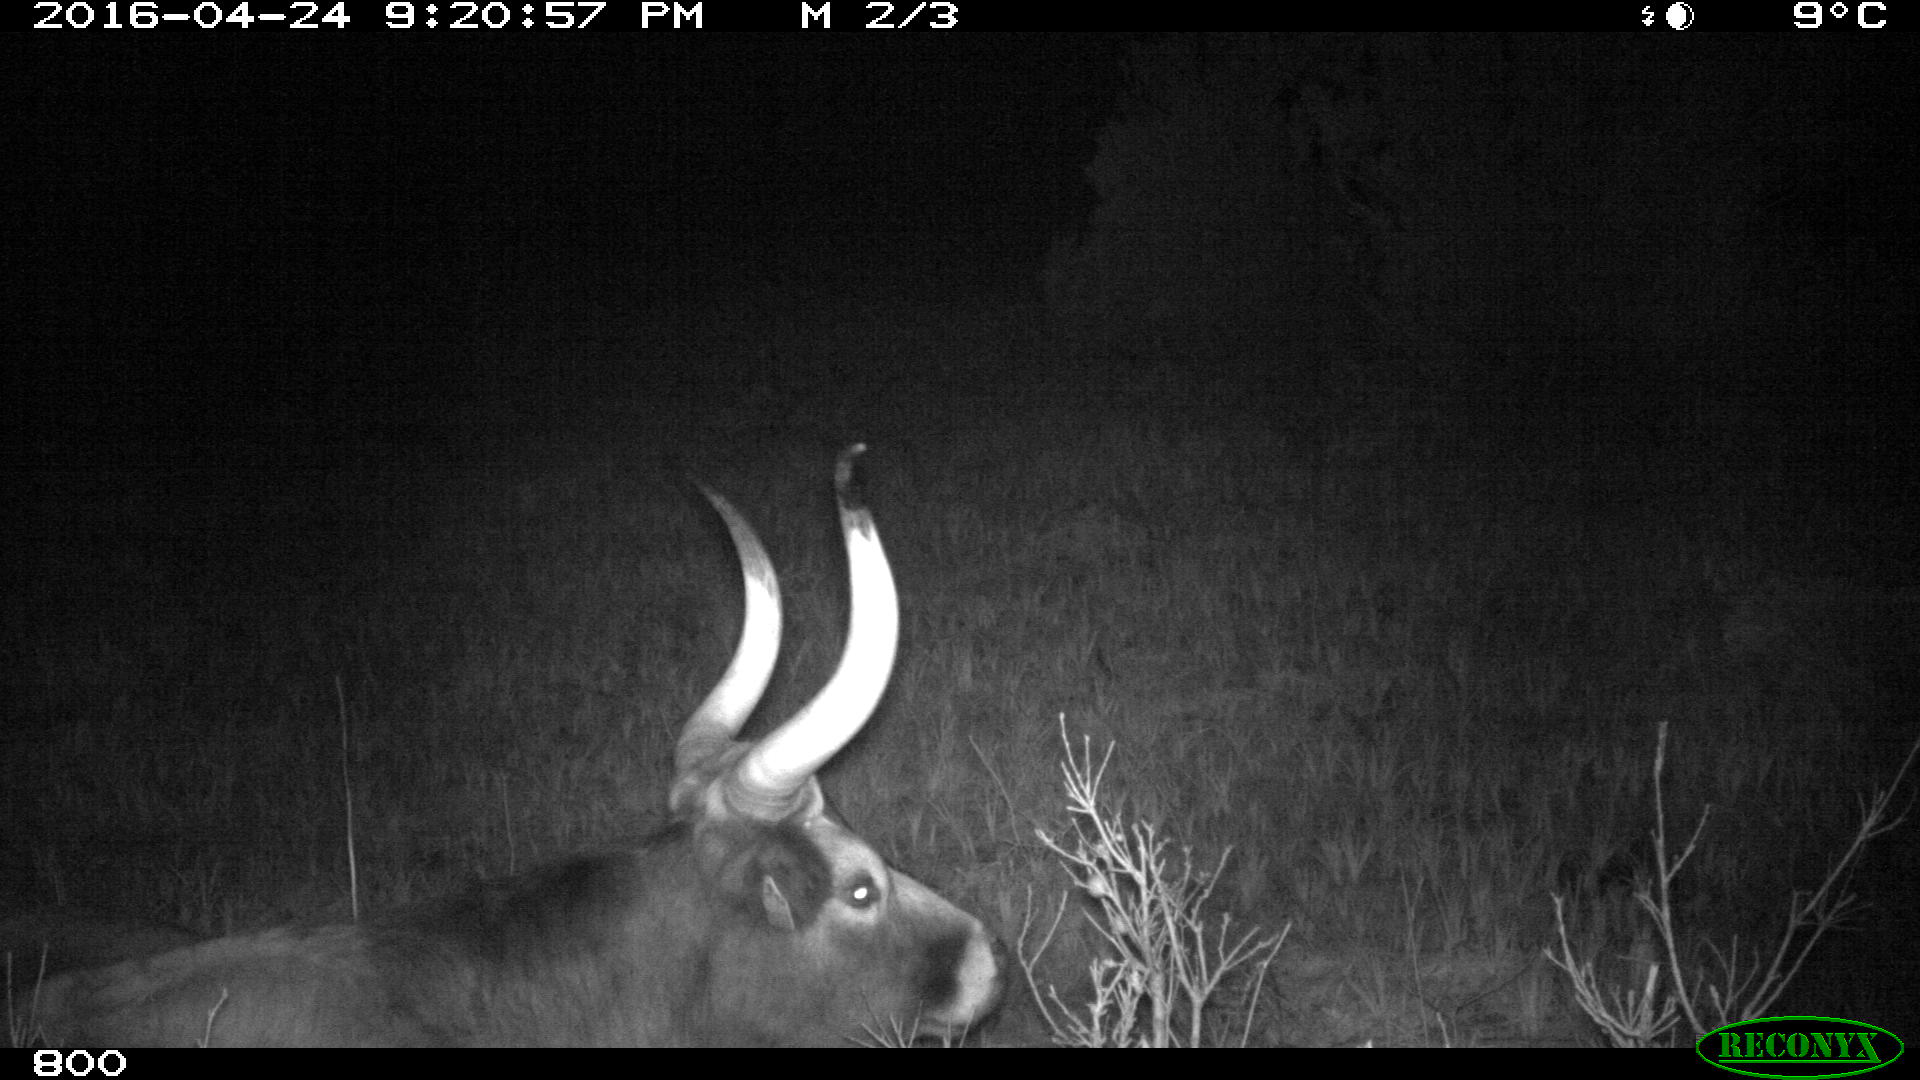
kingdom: Animalia
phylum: Chordata
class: Mammalia
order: Artiodactyla
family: Bovidae
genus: Bos
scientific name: Bos taurus
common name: Domesticated cattle
